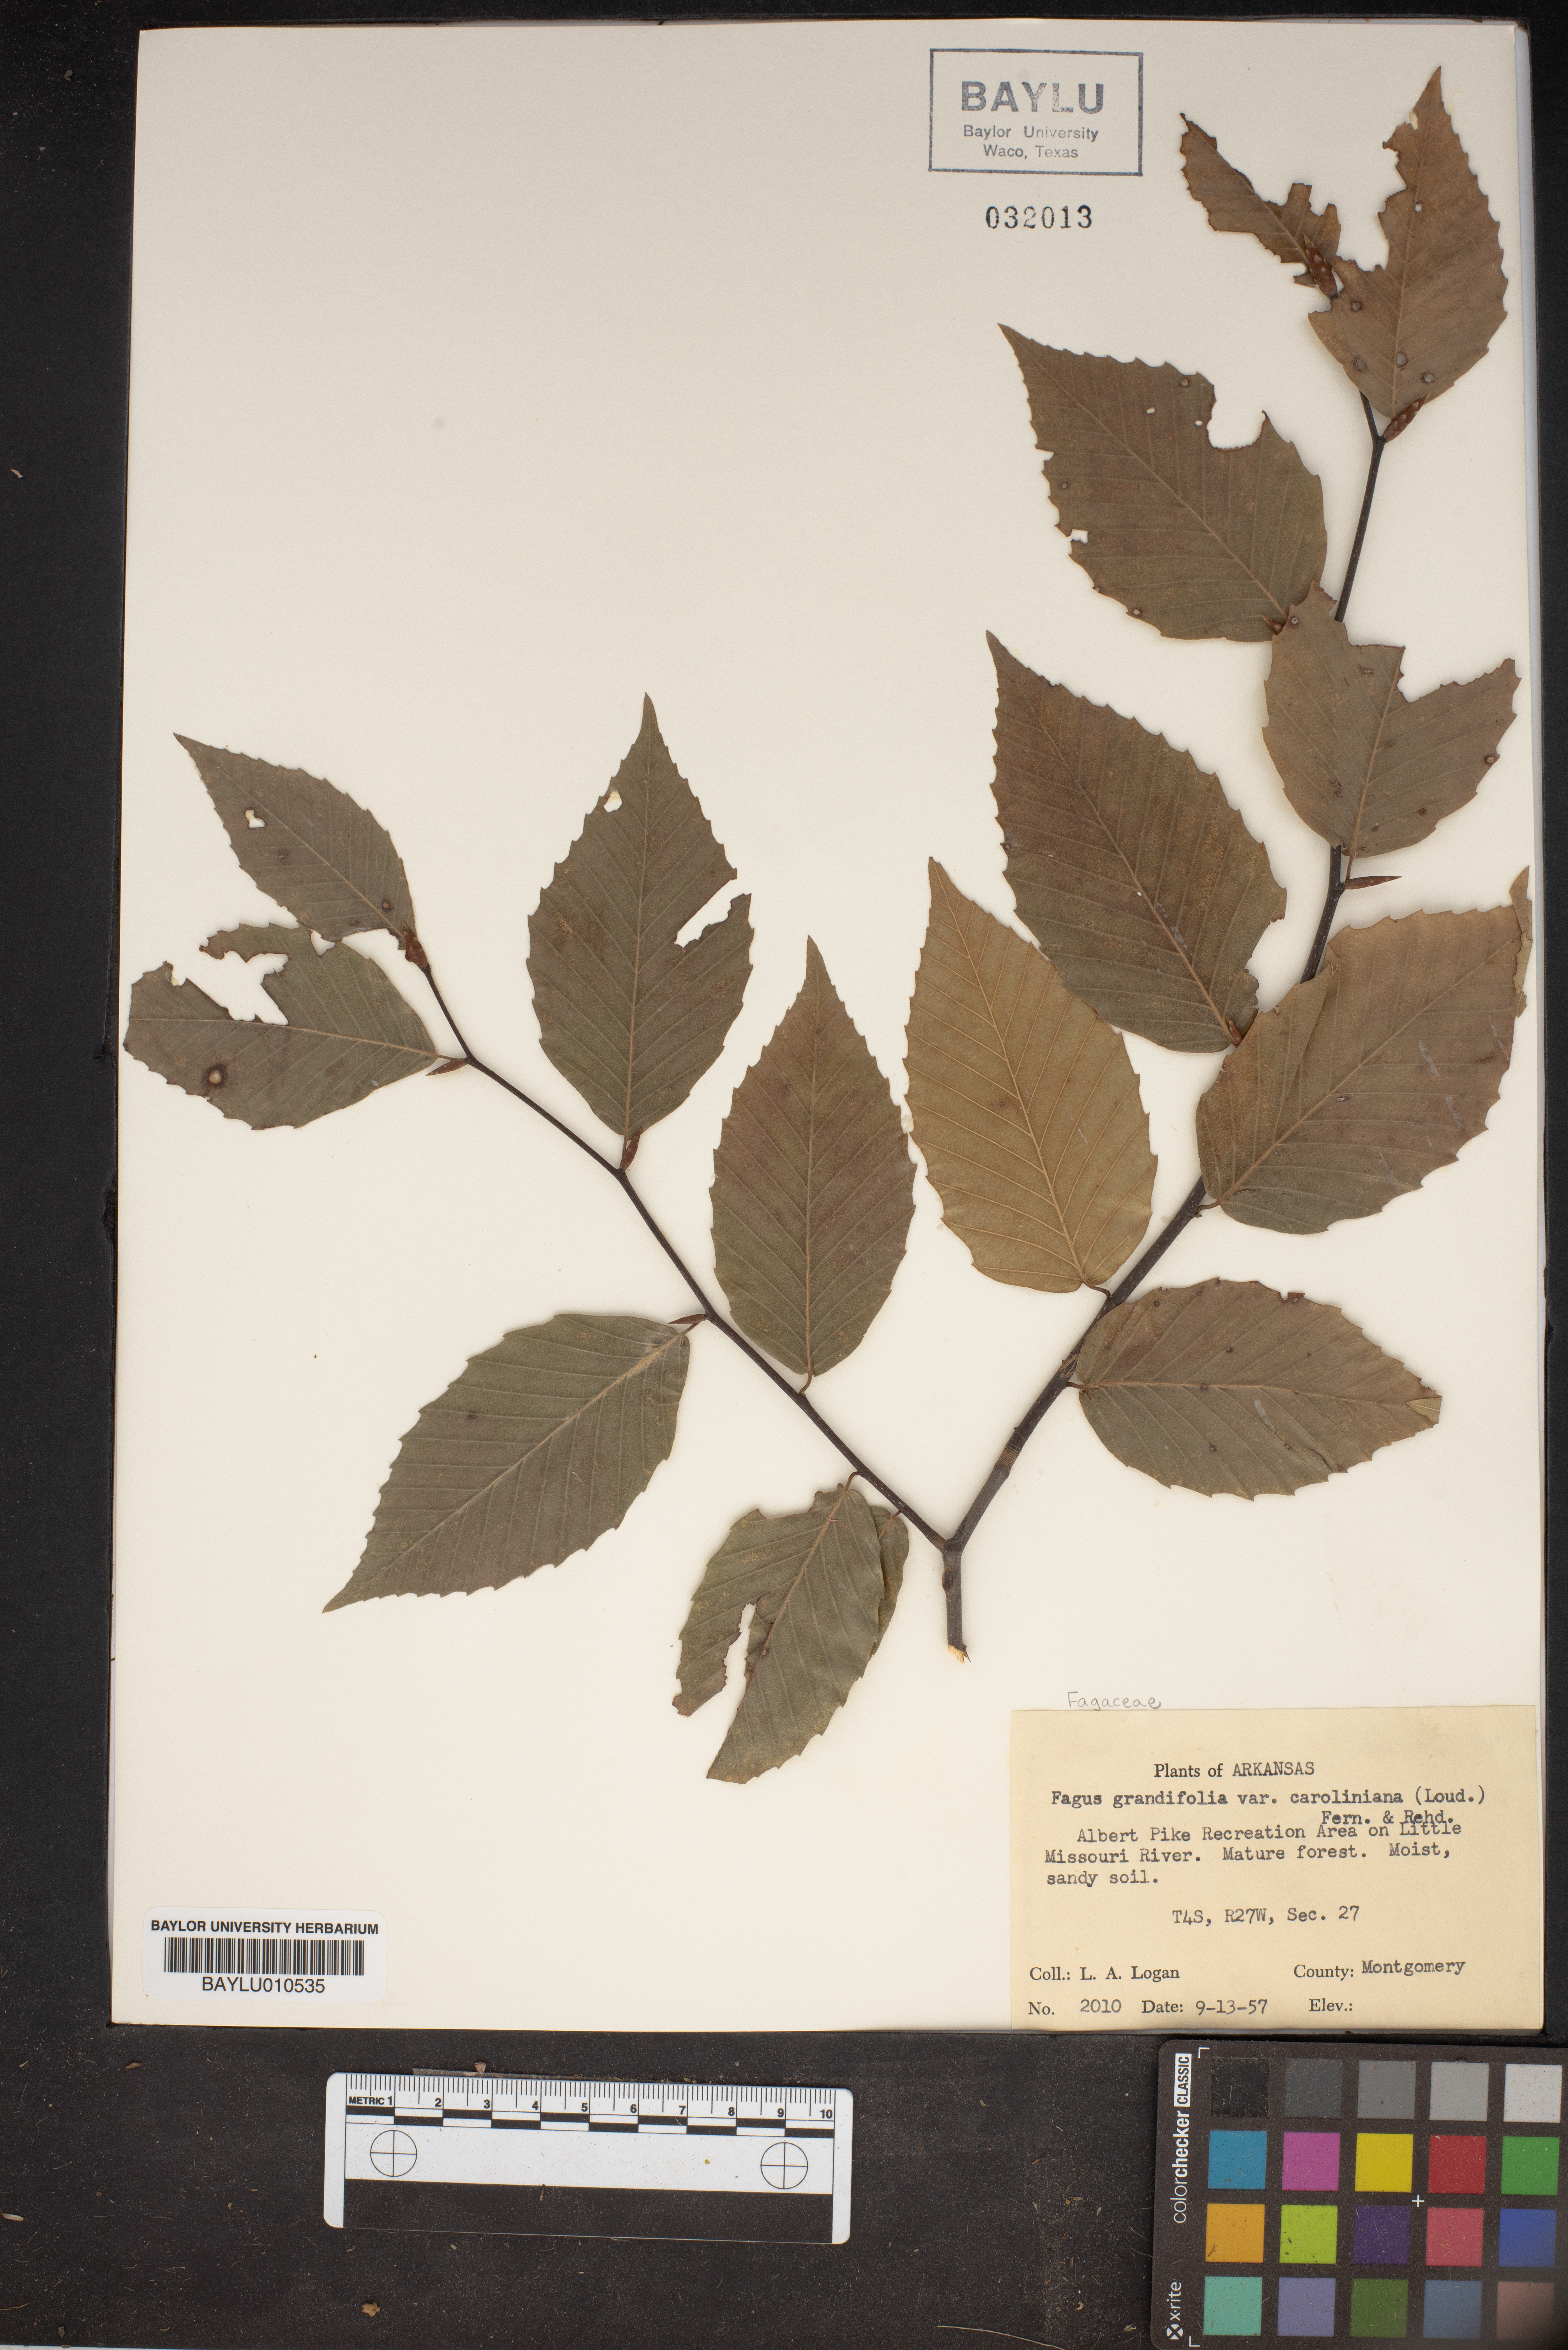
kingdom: Plantae
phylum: Tracheophyta
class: Magnoliopsida
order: Fagales
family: Fagaceae
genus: Fagus
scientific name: Fagus grandifolia
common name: American beech
